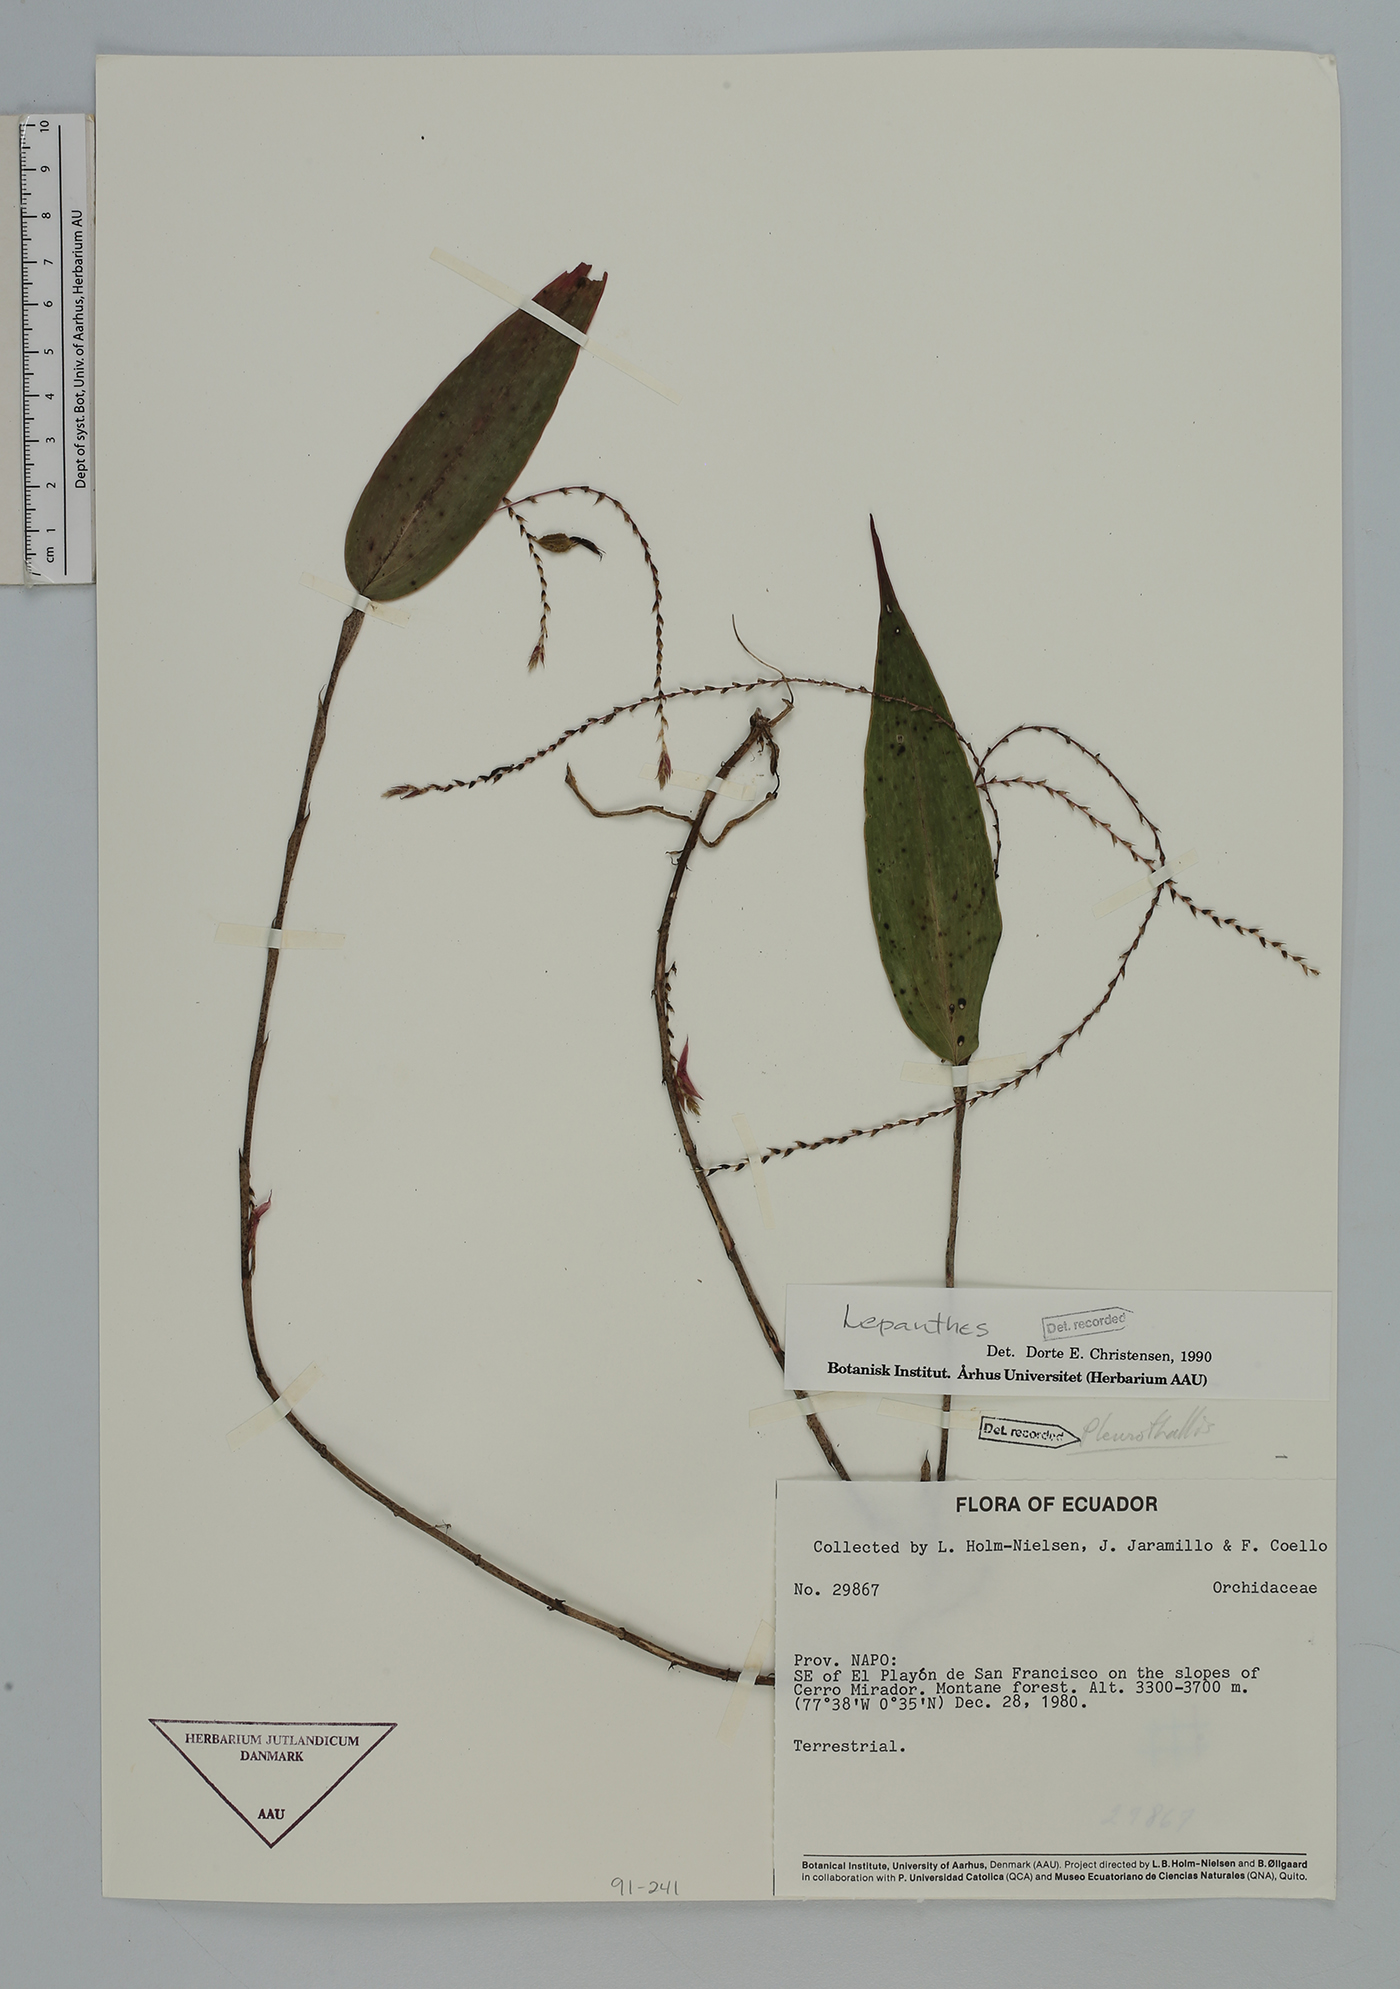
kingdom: Plantae
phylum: Tracheophyta
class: Liliopsida
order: Asparagales
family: Orchidaceae
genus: Lepanthes
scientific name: Lepanthes
